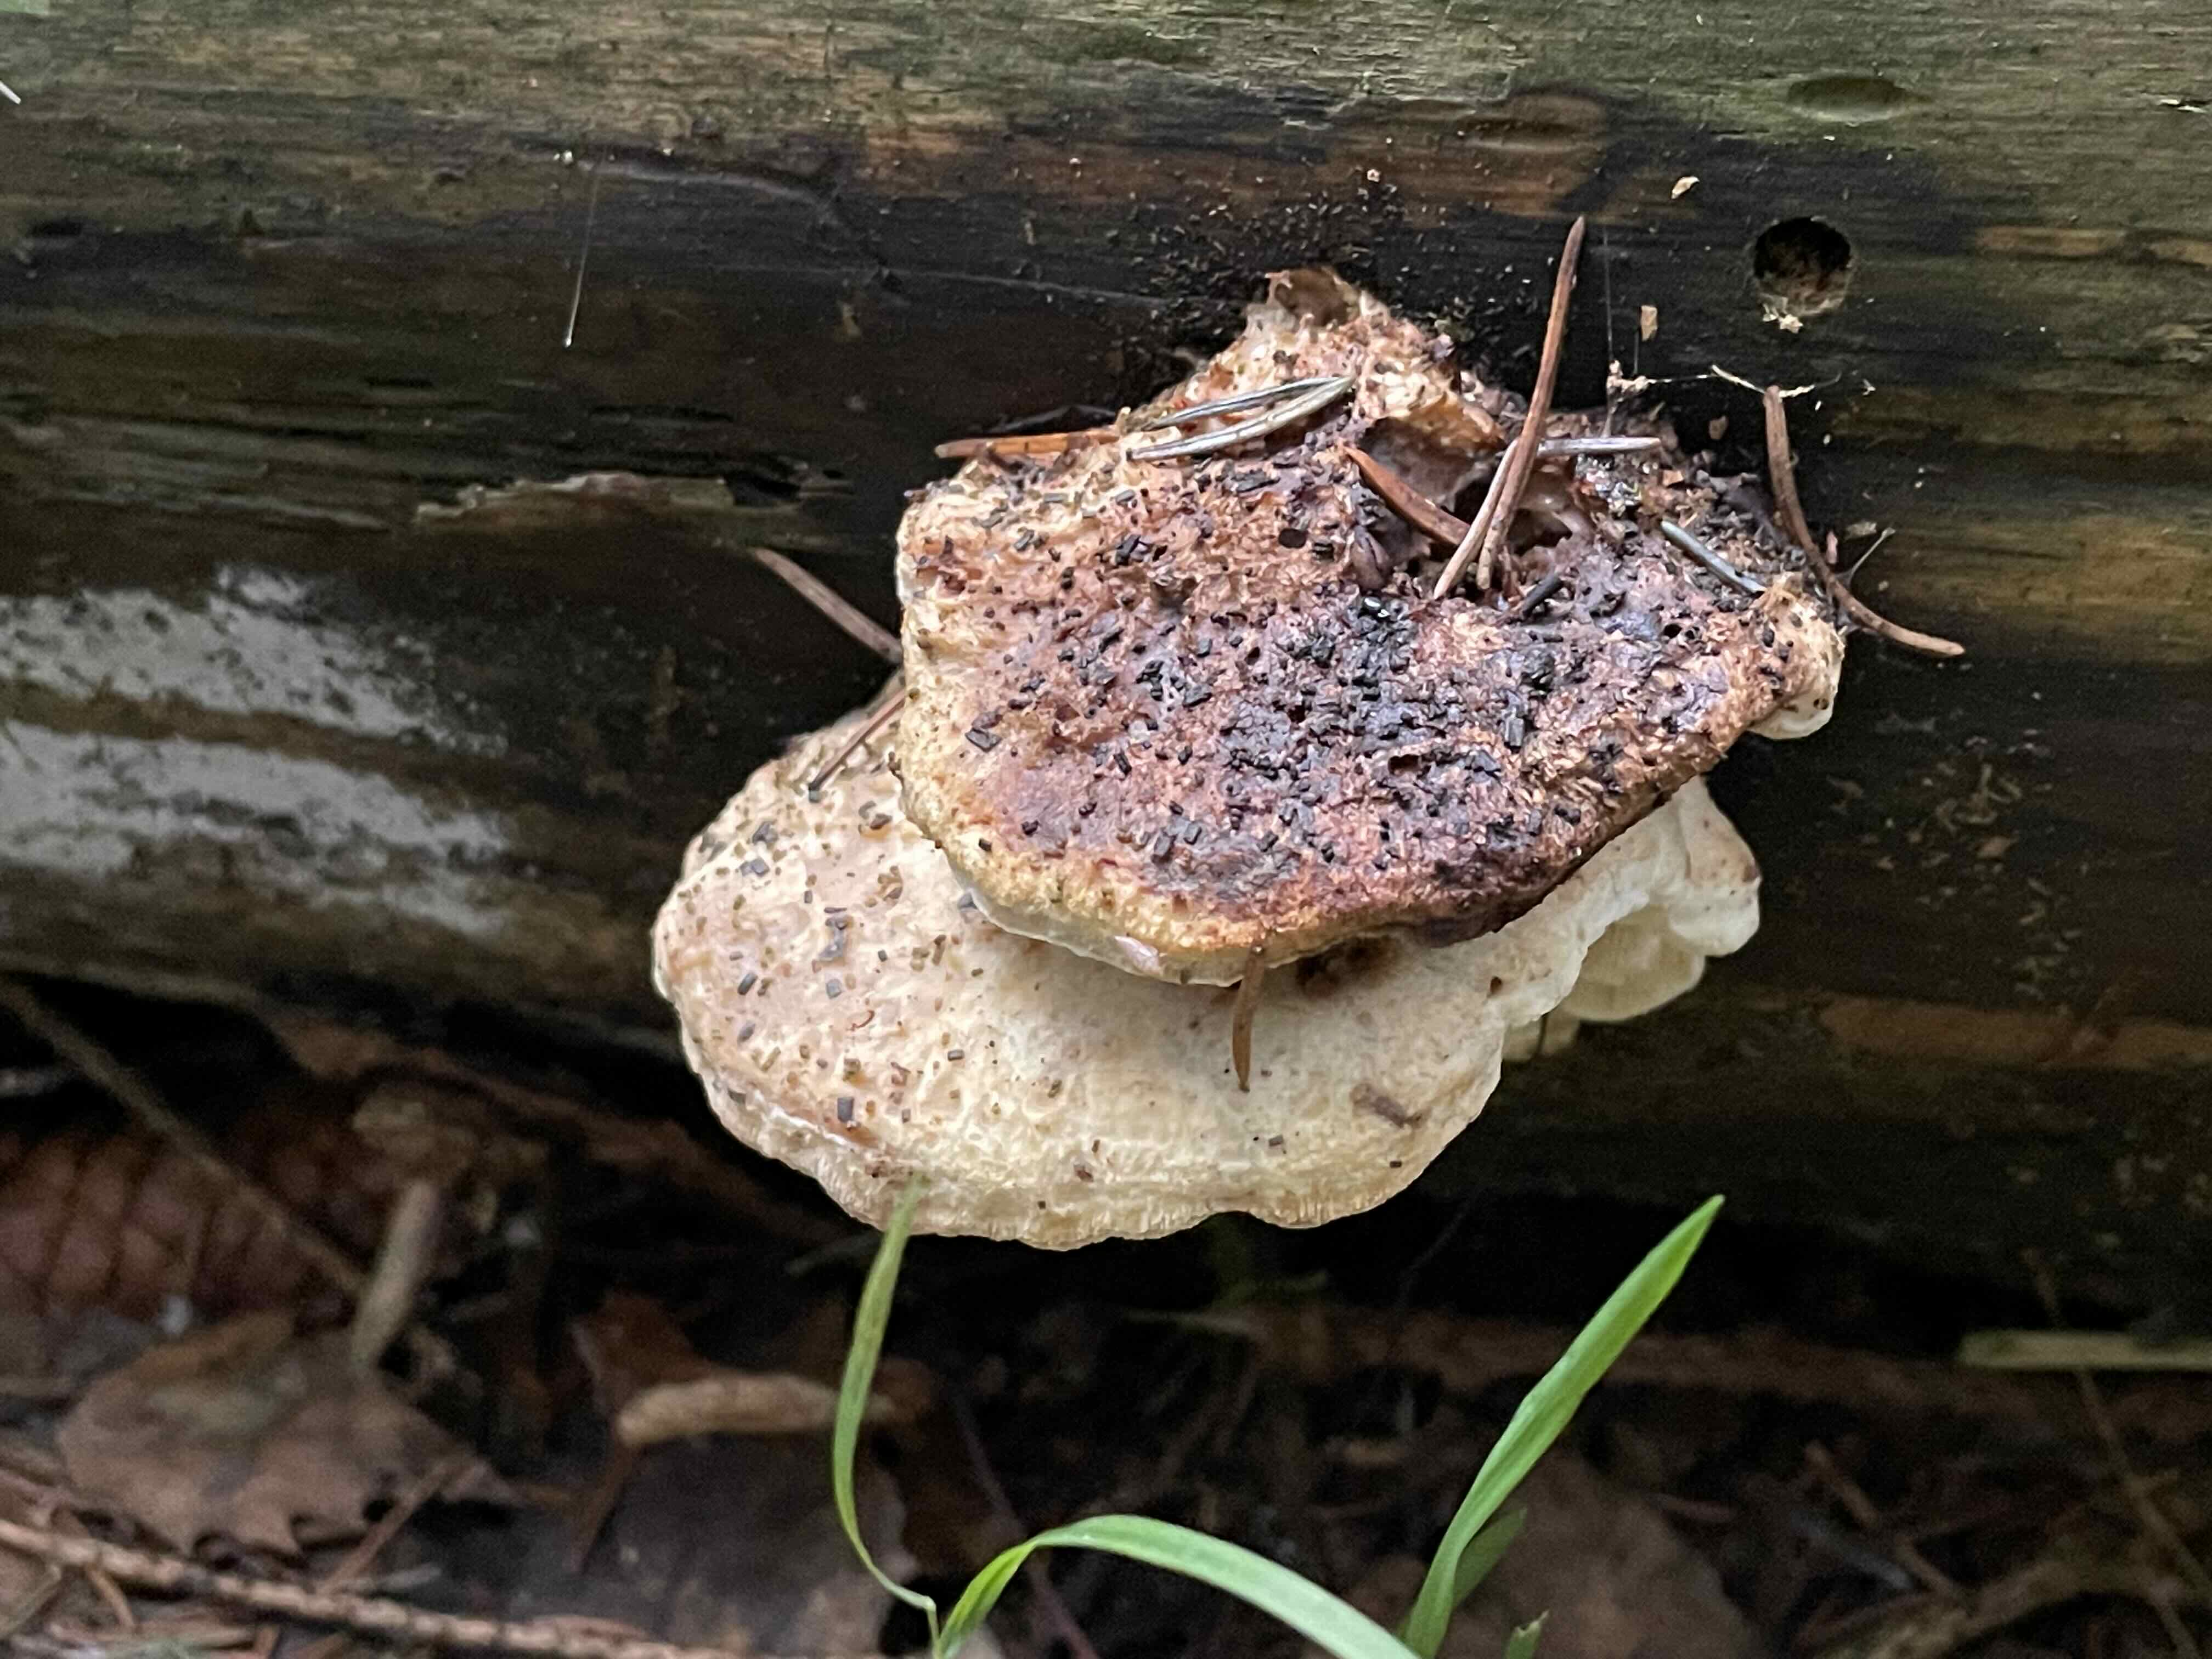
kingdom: Fungi
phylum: Basidiomycota
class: Agaricomycetes
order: Polyporales
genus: Fuscopostia
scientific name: Fuscopostia fragilis
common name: brunende kødporesvamp
